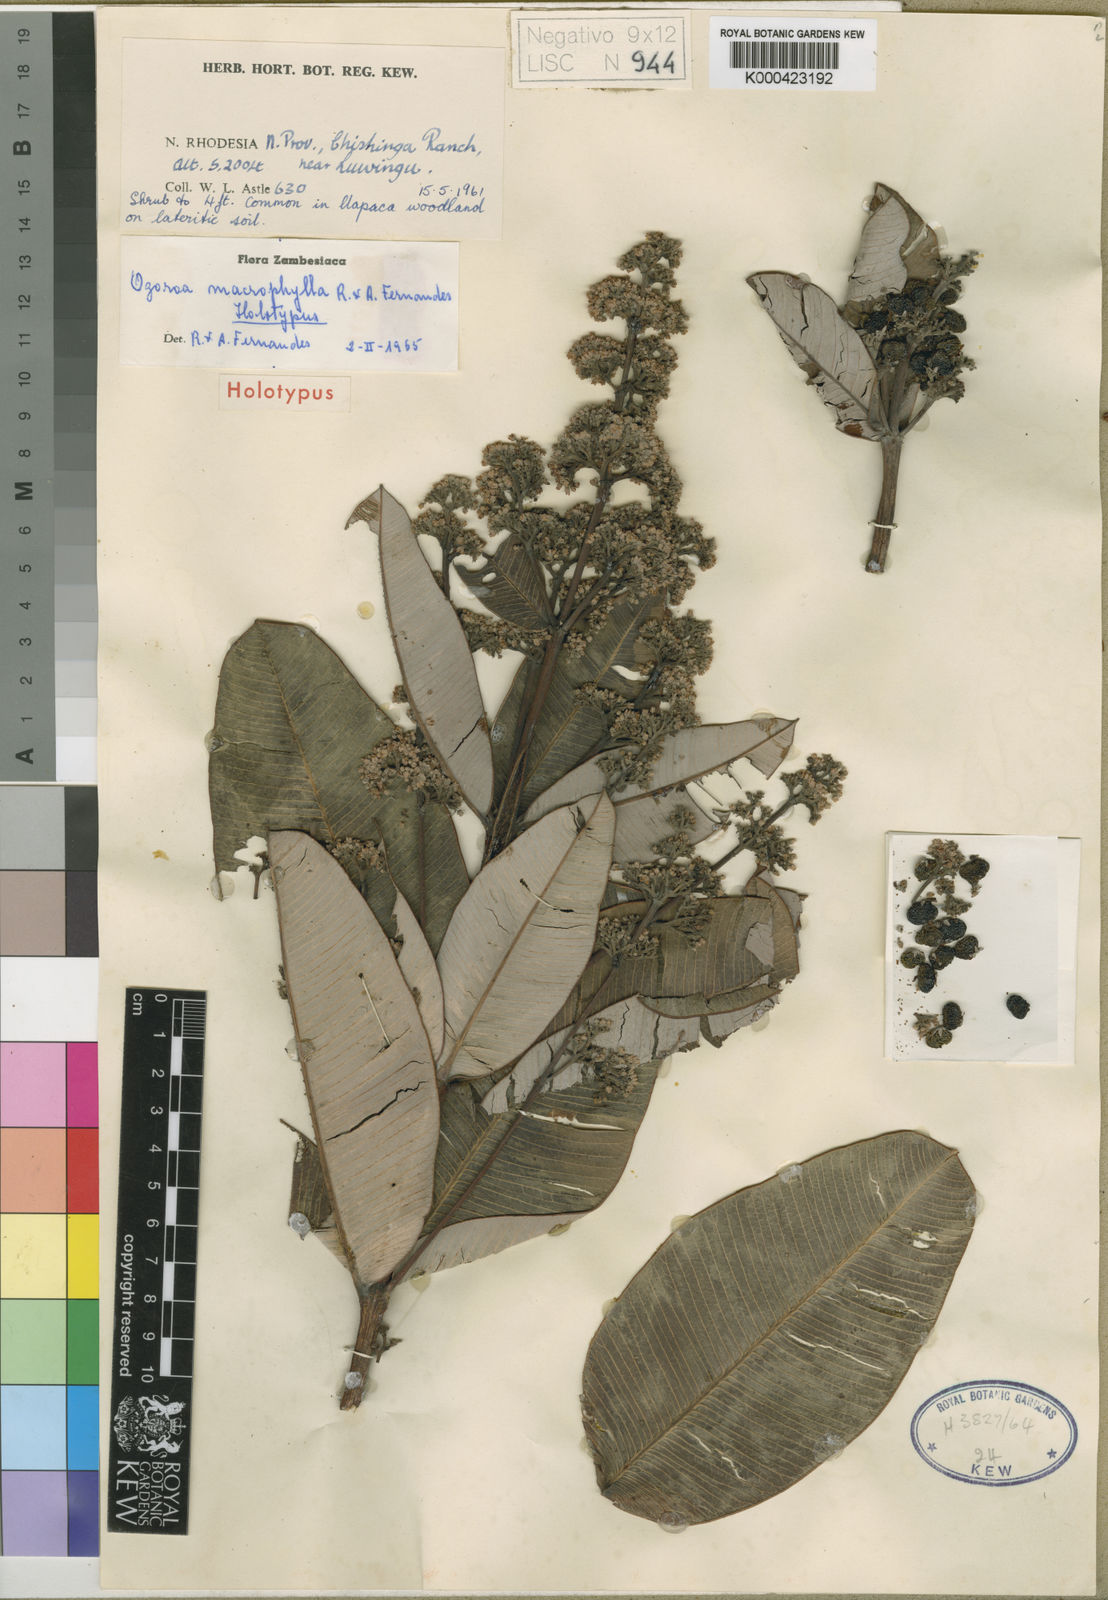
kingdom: Plantae
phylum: Tracheophyta
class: Magnoliopsida
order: Sapindales
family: Anacardiaceae
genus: Ozoroa
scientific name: Ozoroa macrophylla
